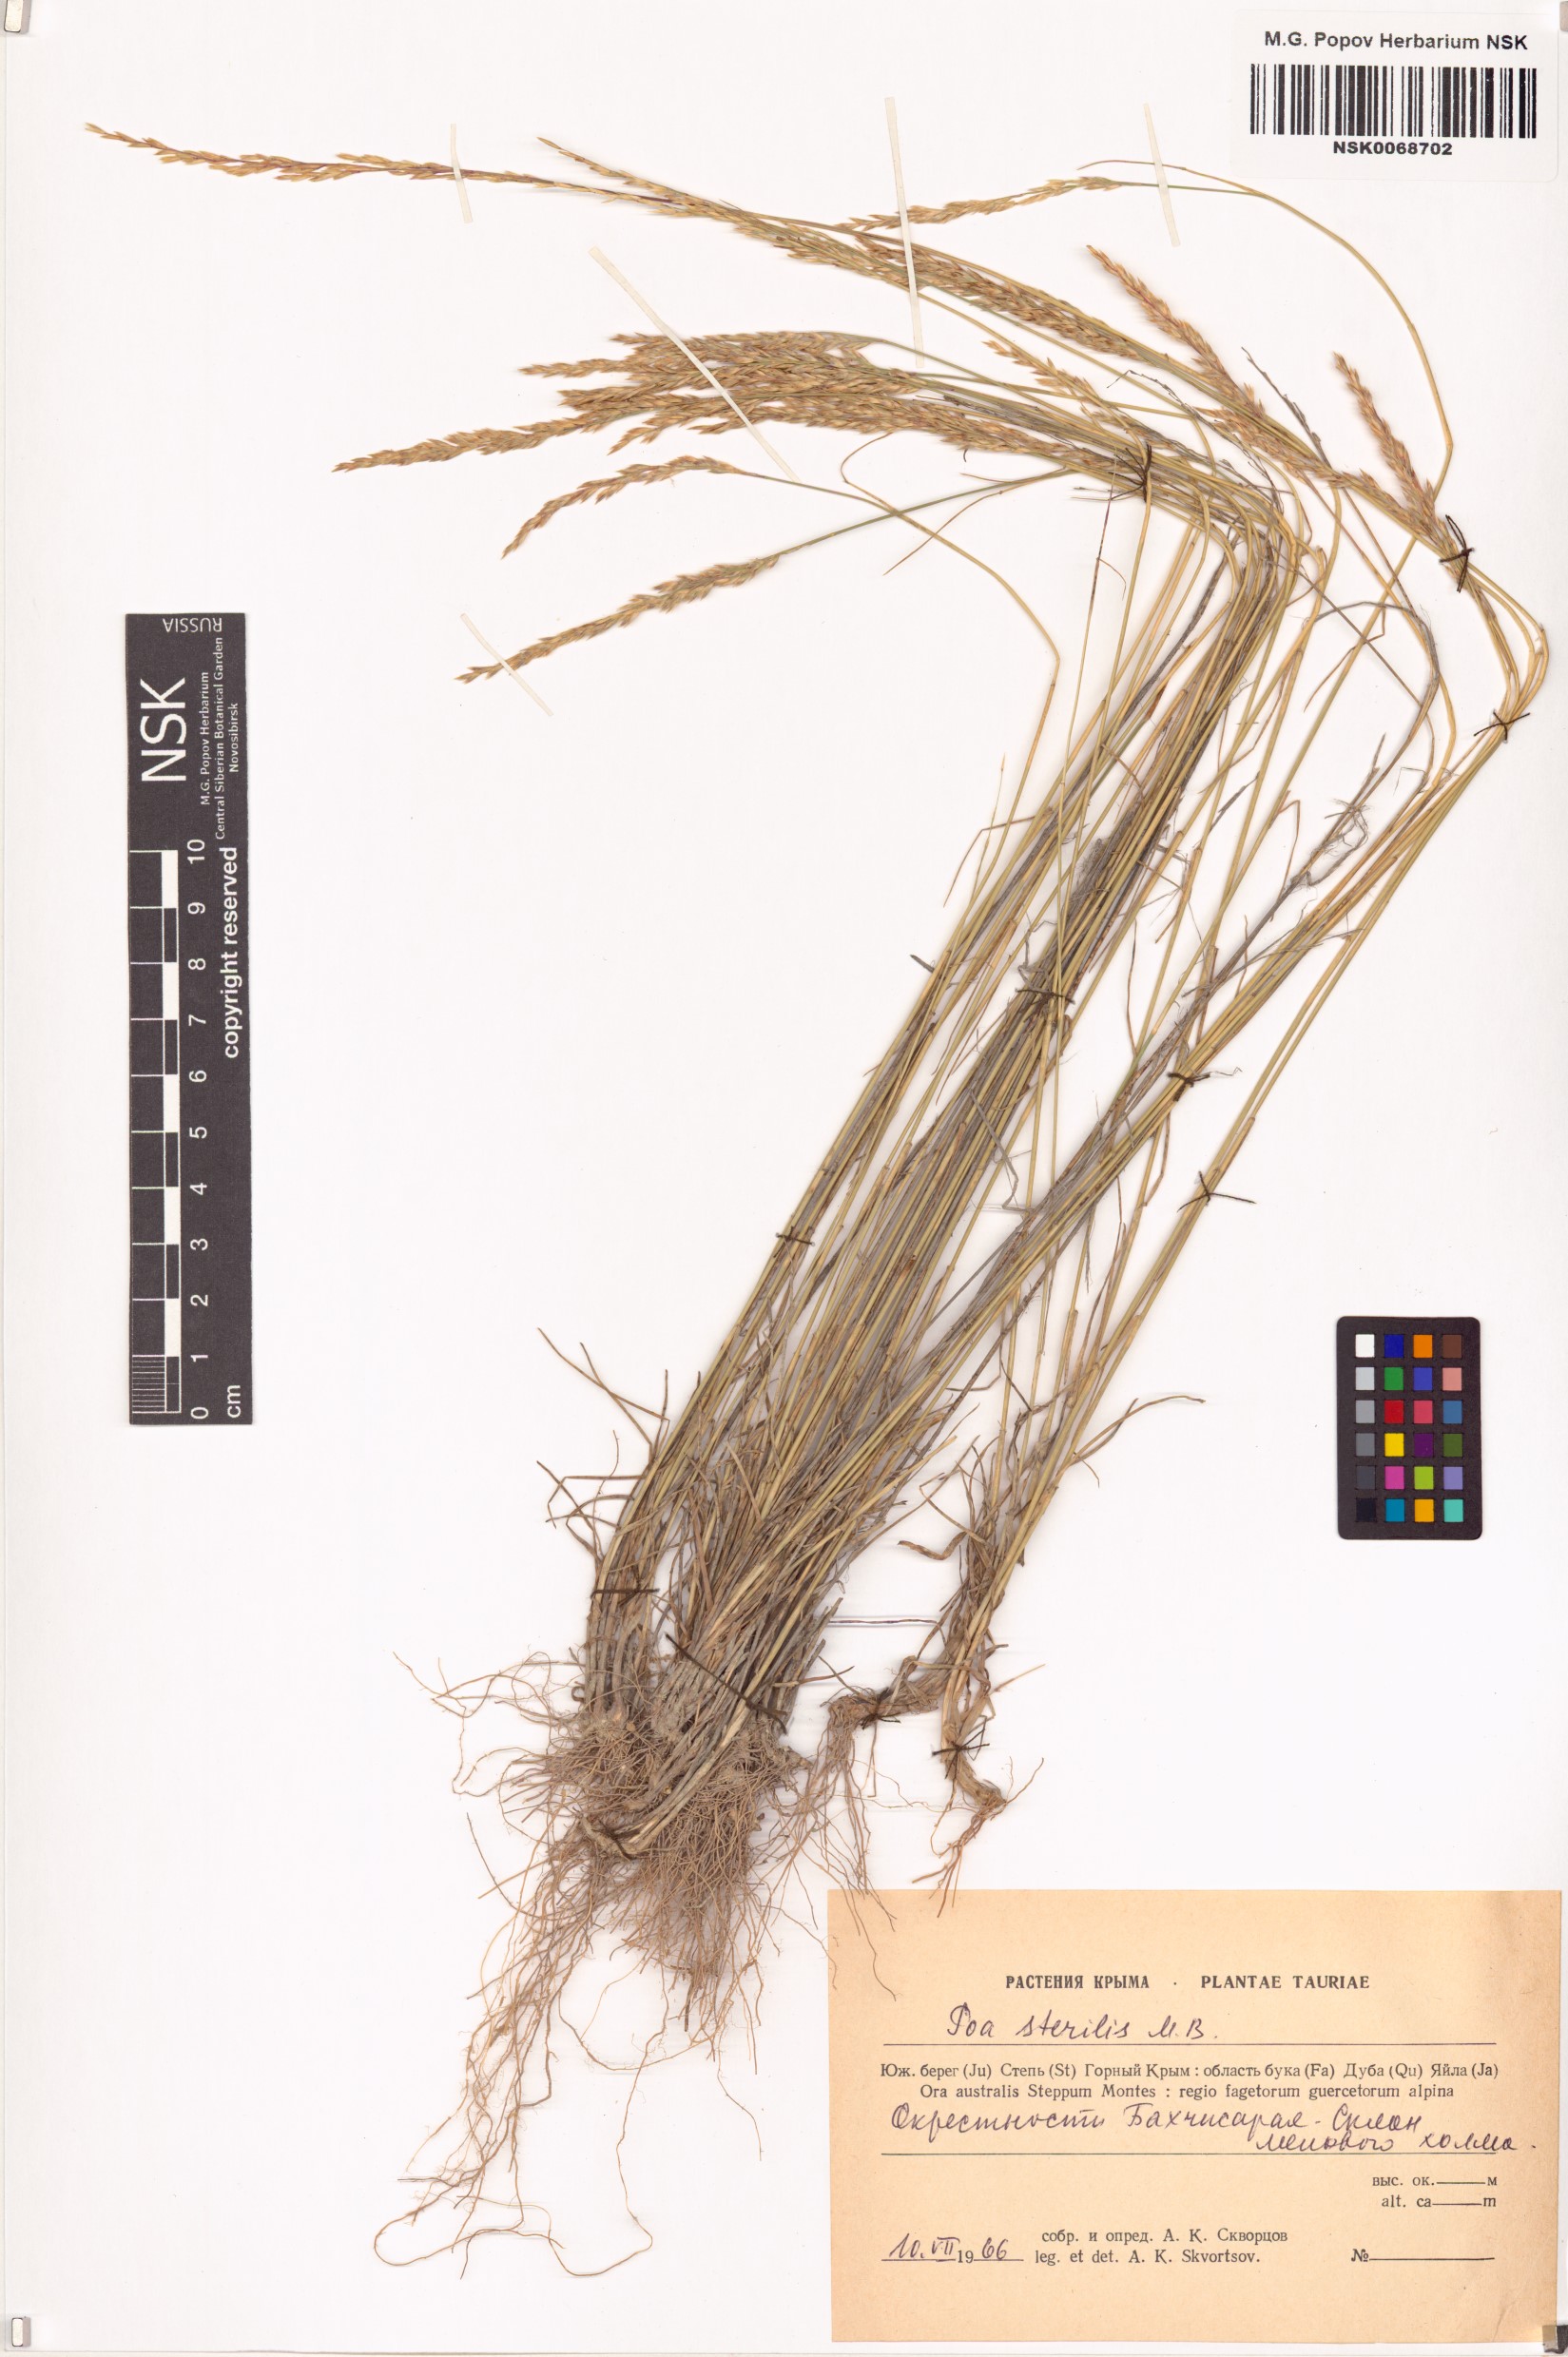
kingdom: Plantae
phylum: Tracheophyta
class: Liliopsida
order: Poales
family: Poaceae
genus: Poa
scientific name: Poa sterilis
